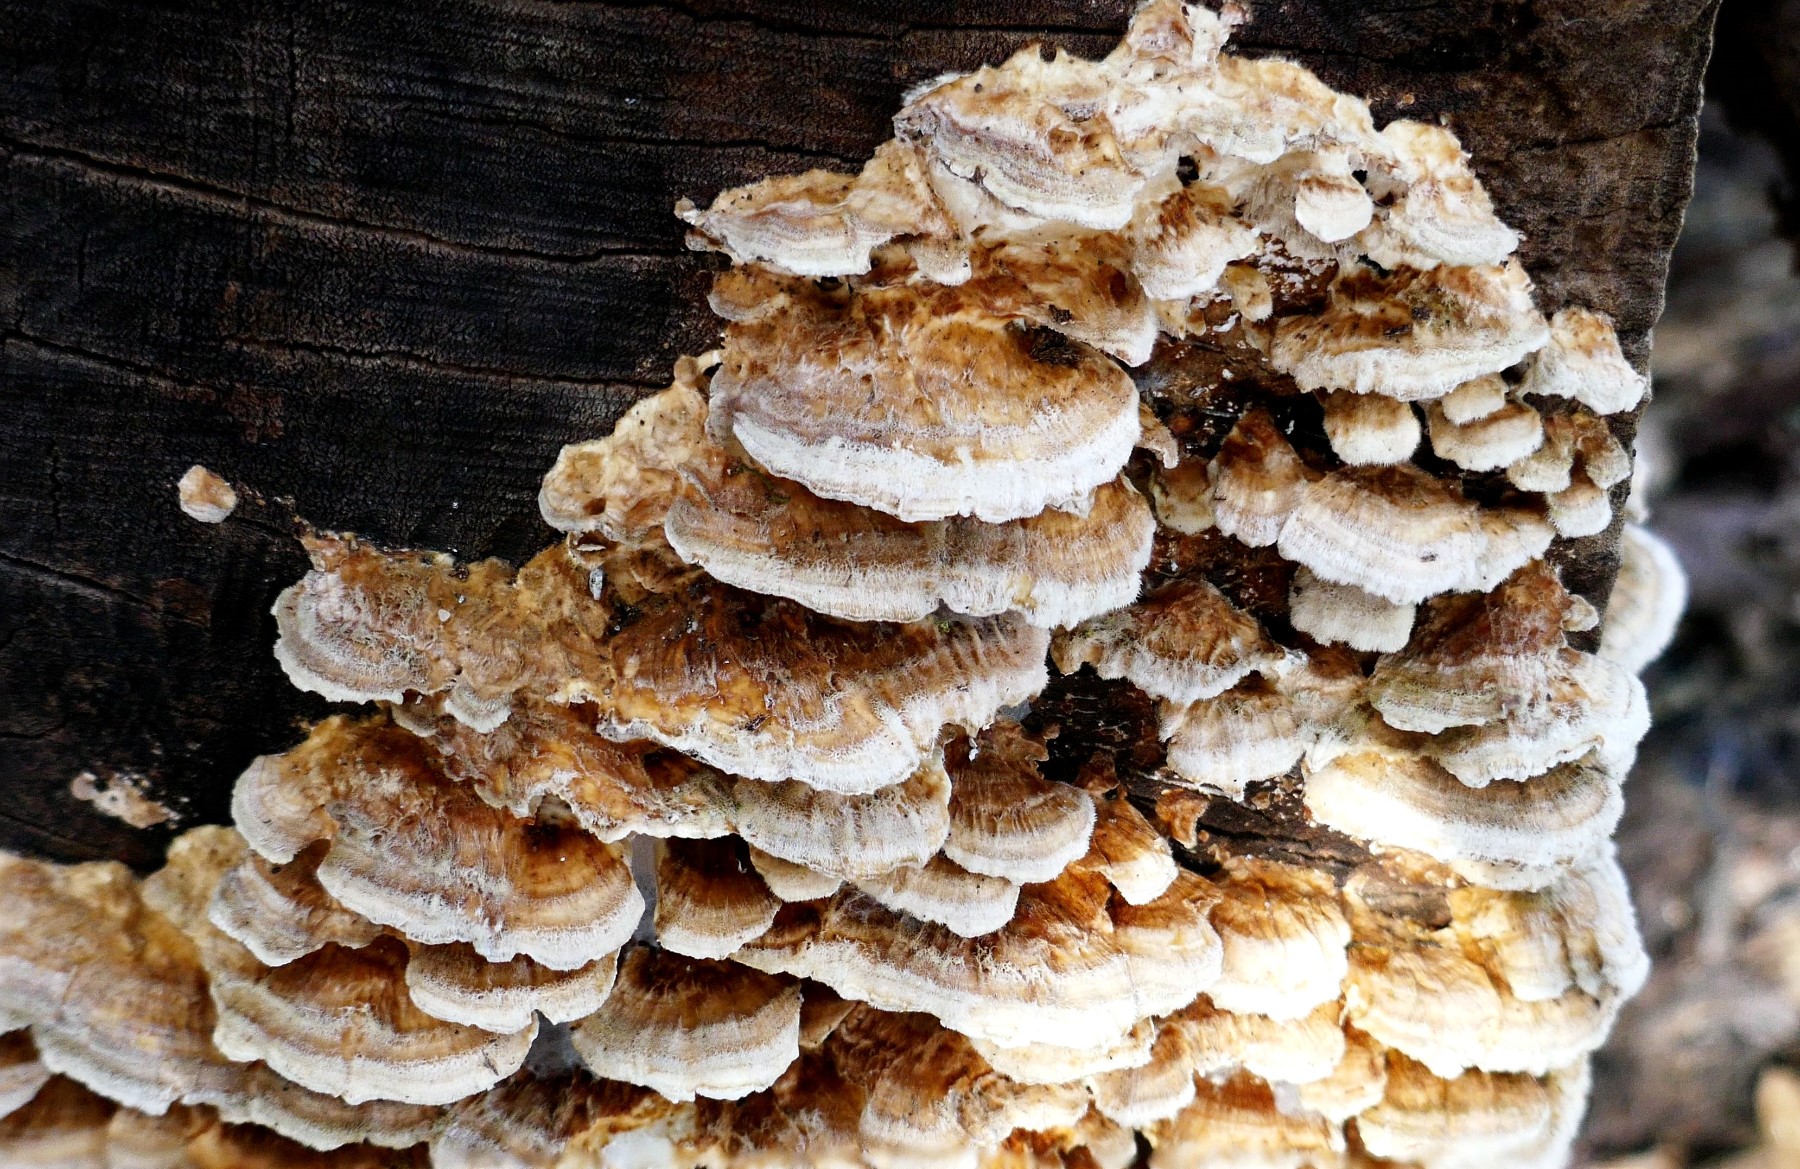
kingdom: Fungi
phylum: Basidiomycota
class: Agaricomycetes
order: Polyporales
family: Polyporaceae
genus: Trametes
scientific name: Trametes ochracea
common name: bæltet læderporesvamp
